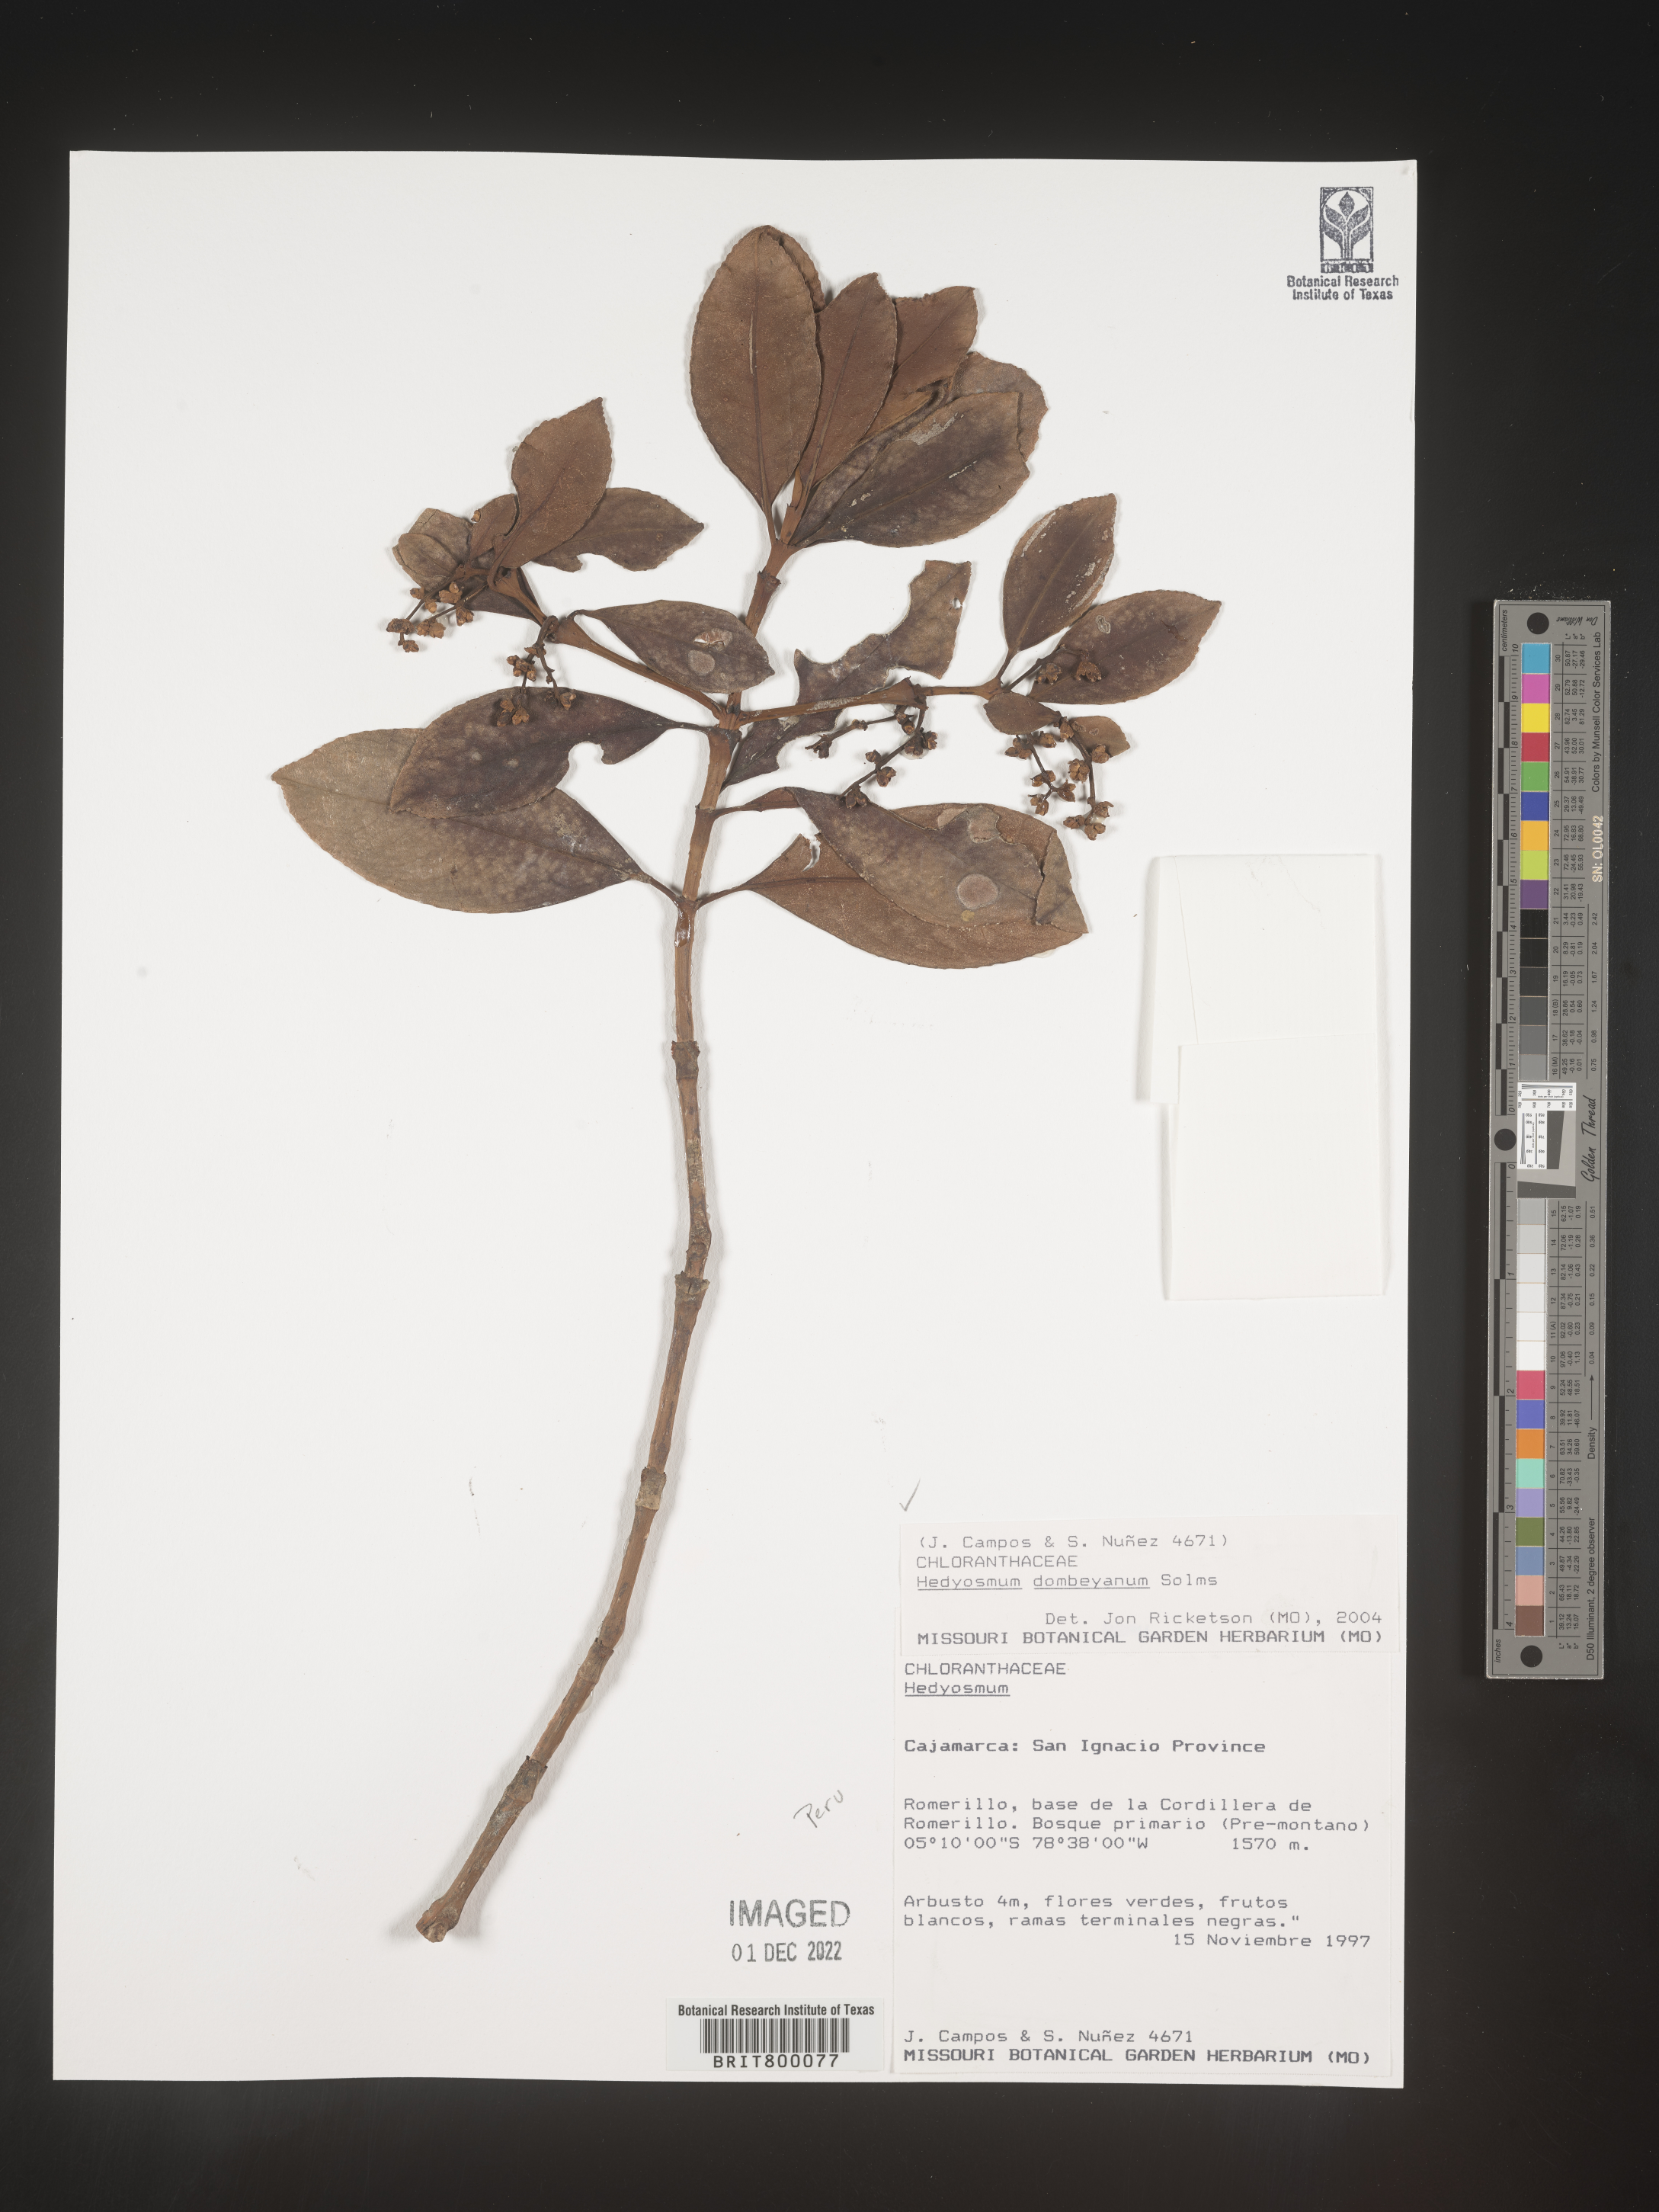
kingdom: Plantae
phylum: Tracheophyta
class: Magnoliopsida
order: Chloranthales
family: Chloranthaceae
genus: Hedyosmum
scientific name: Hedyosmum
